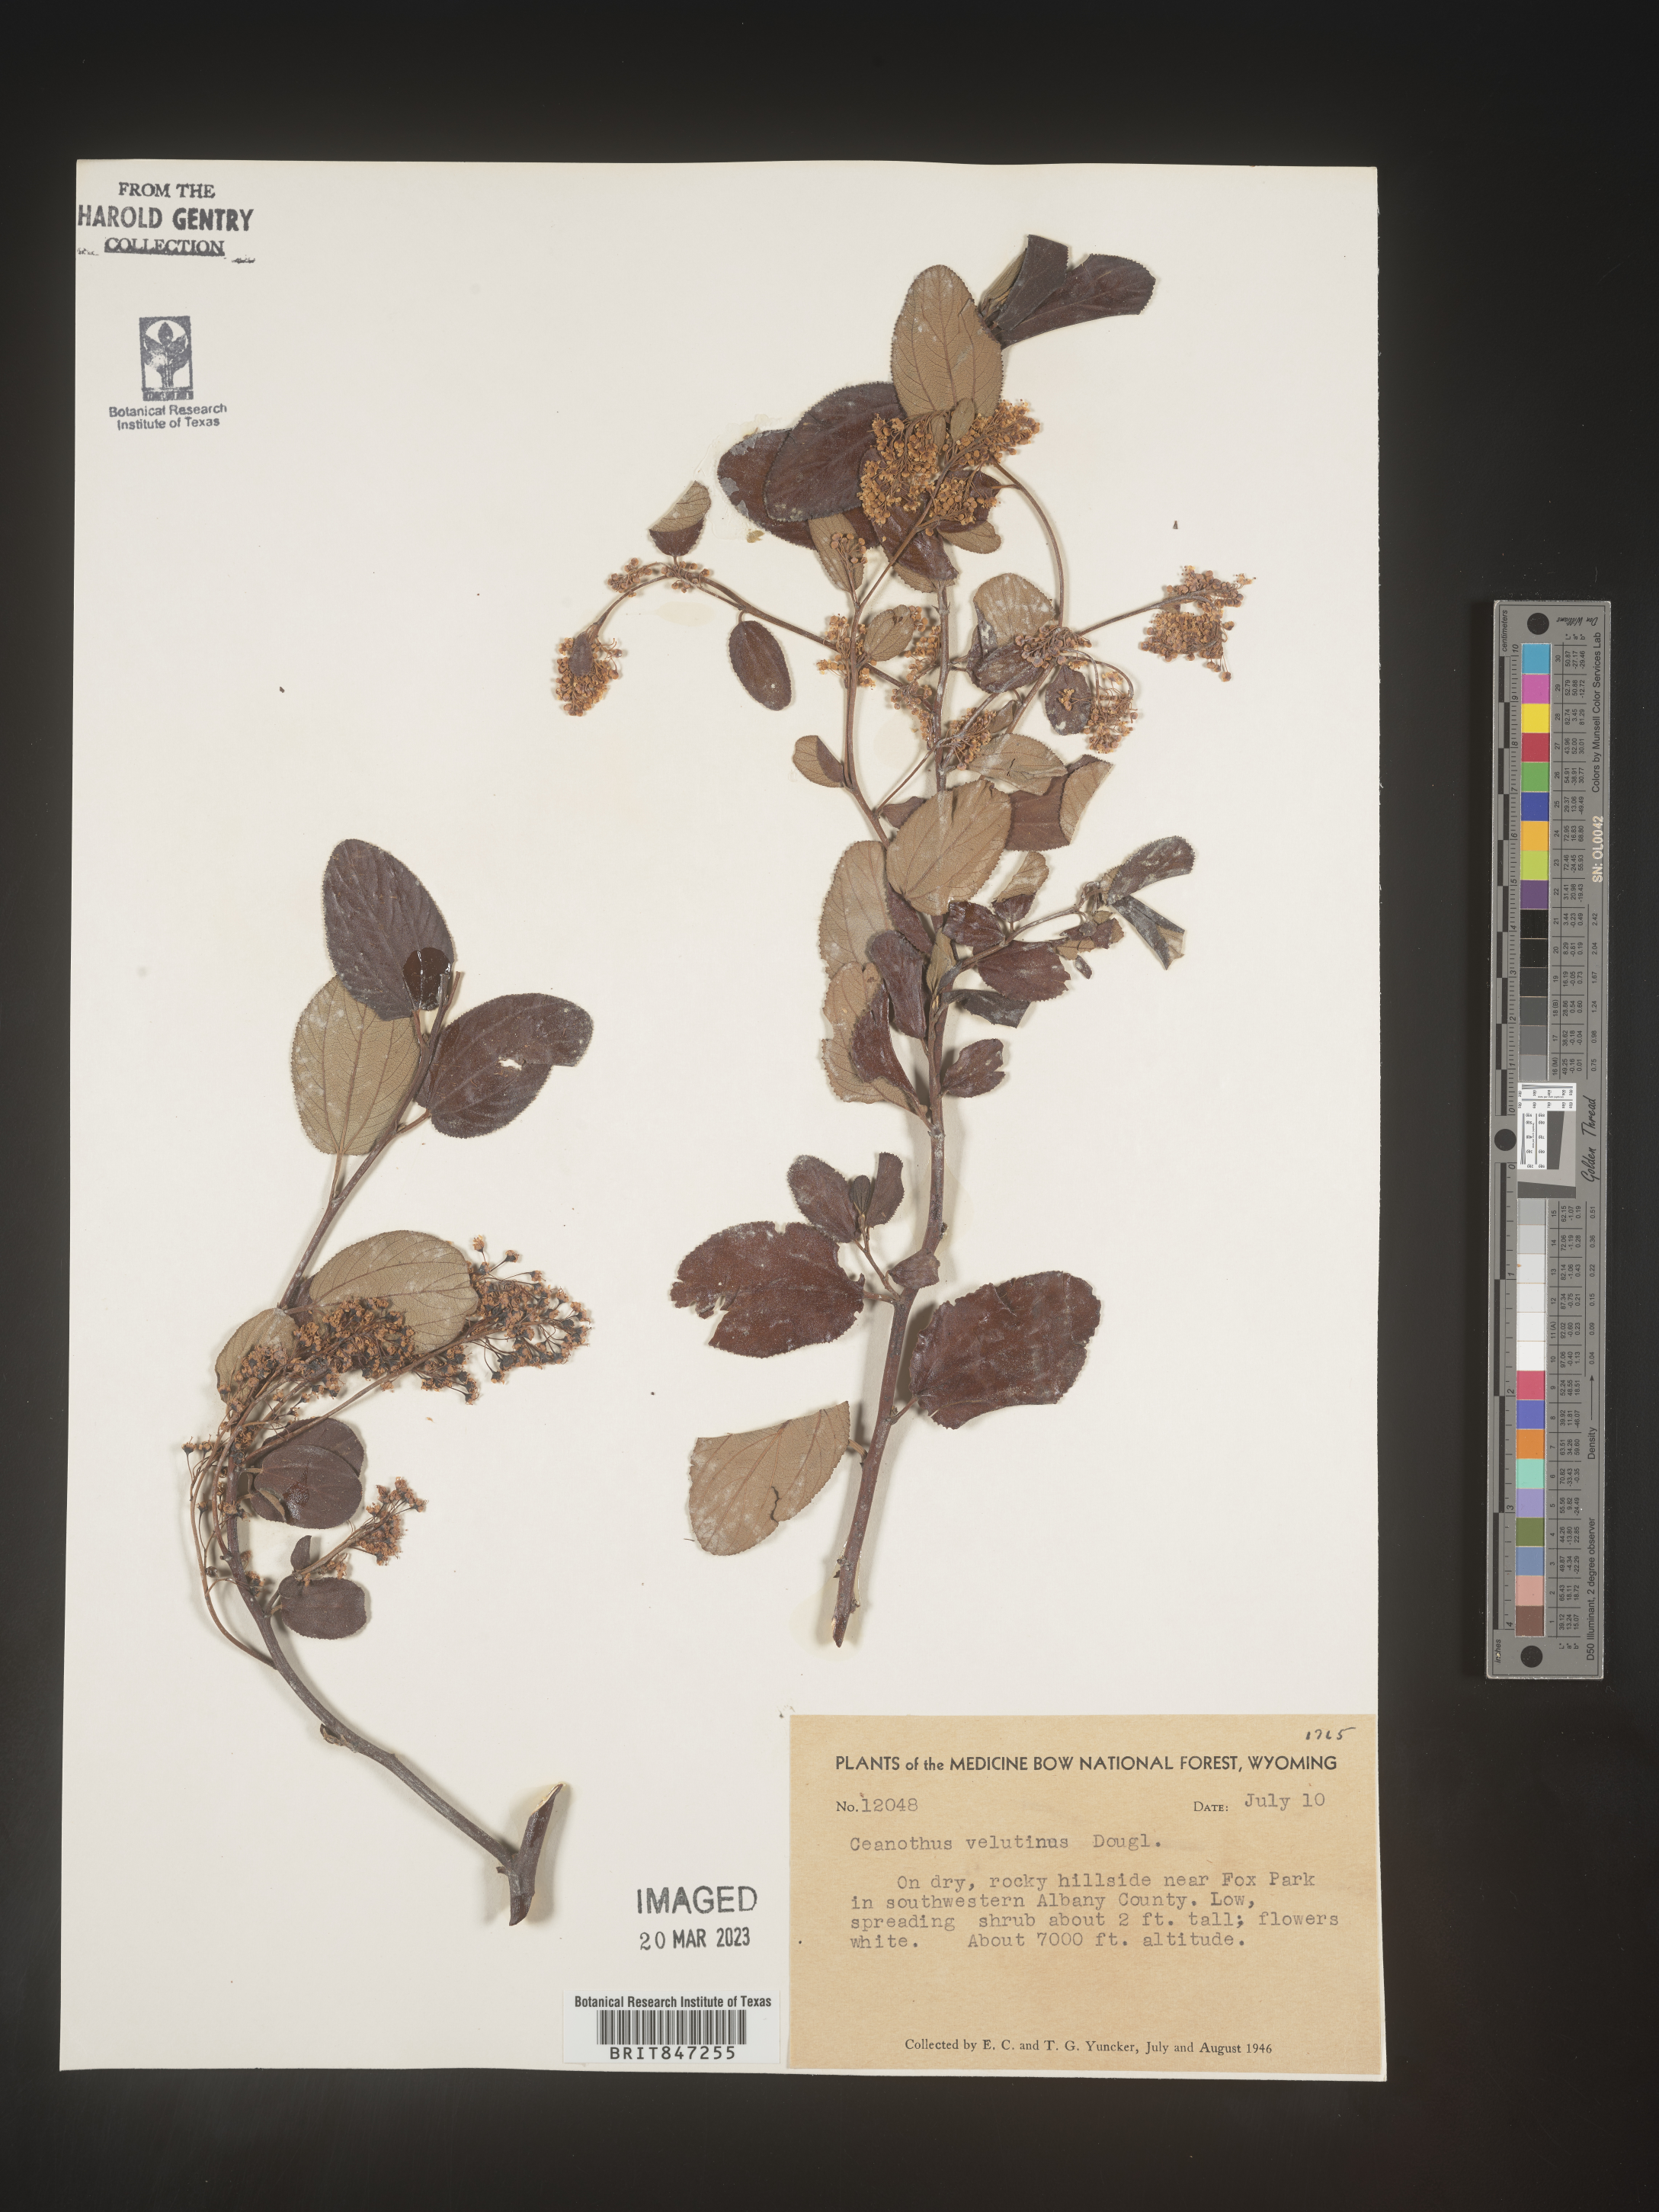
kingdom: Plantae
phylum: Tracheophyta
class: Magnoliopsida
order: Rosales
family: Rhamnaceae
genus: Ceanothus
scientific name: Ceanothus velutinus
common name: Snowbrush
